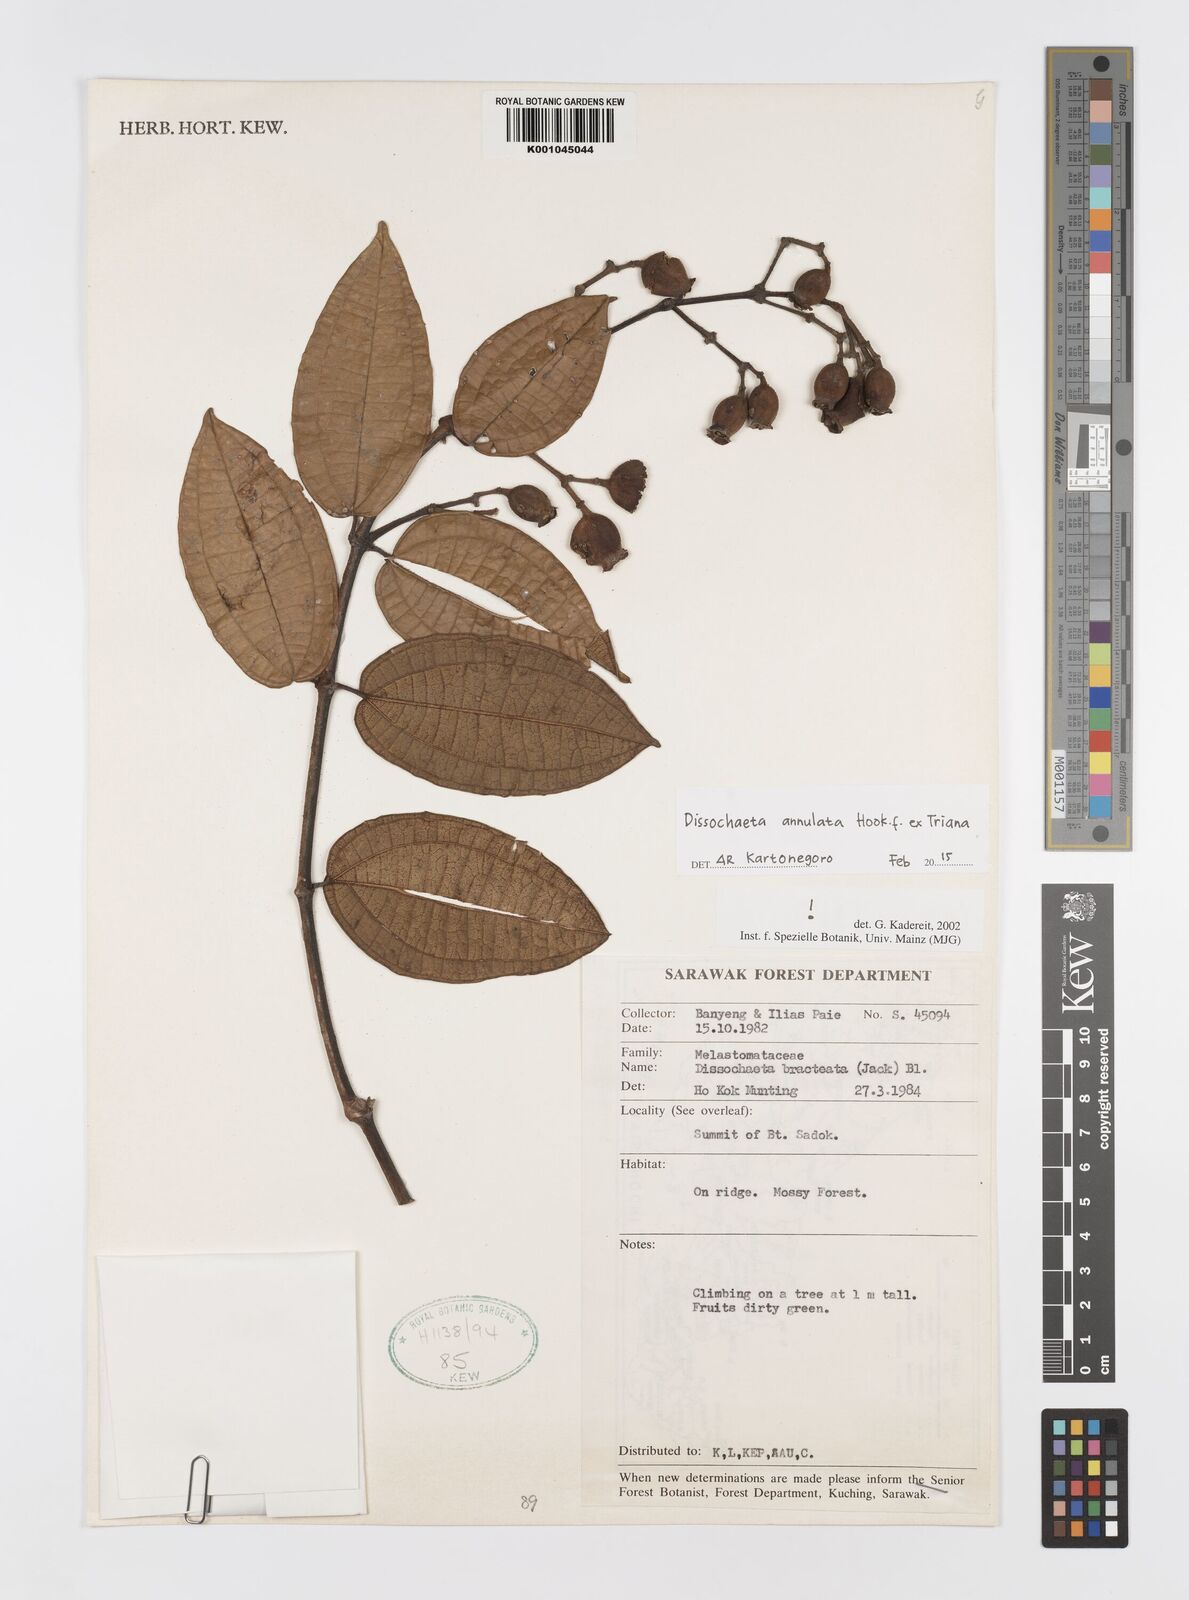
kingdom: Plantae
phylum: Tracheophyta
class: Magnoliopsida
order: Myrtales
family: Melastomataceae
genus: Dissochaeta
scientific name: Dissochaeta annulata
